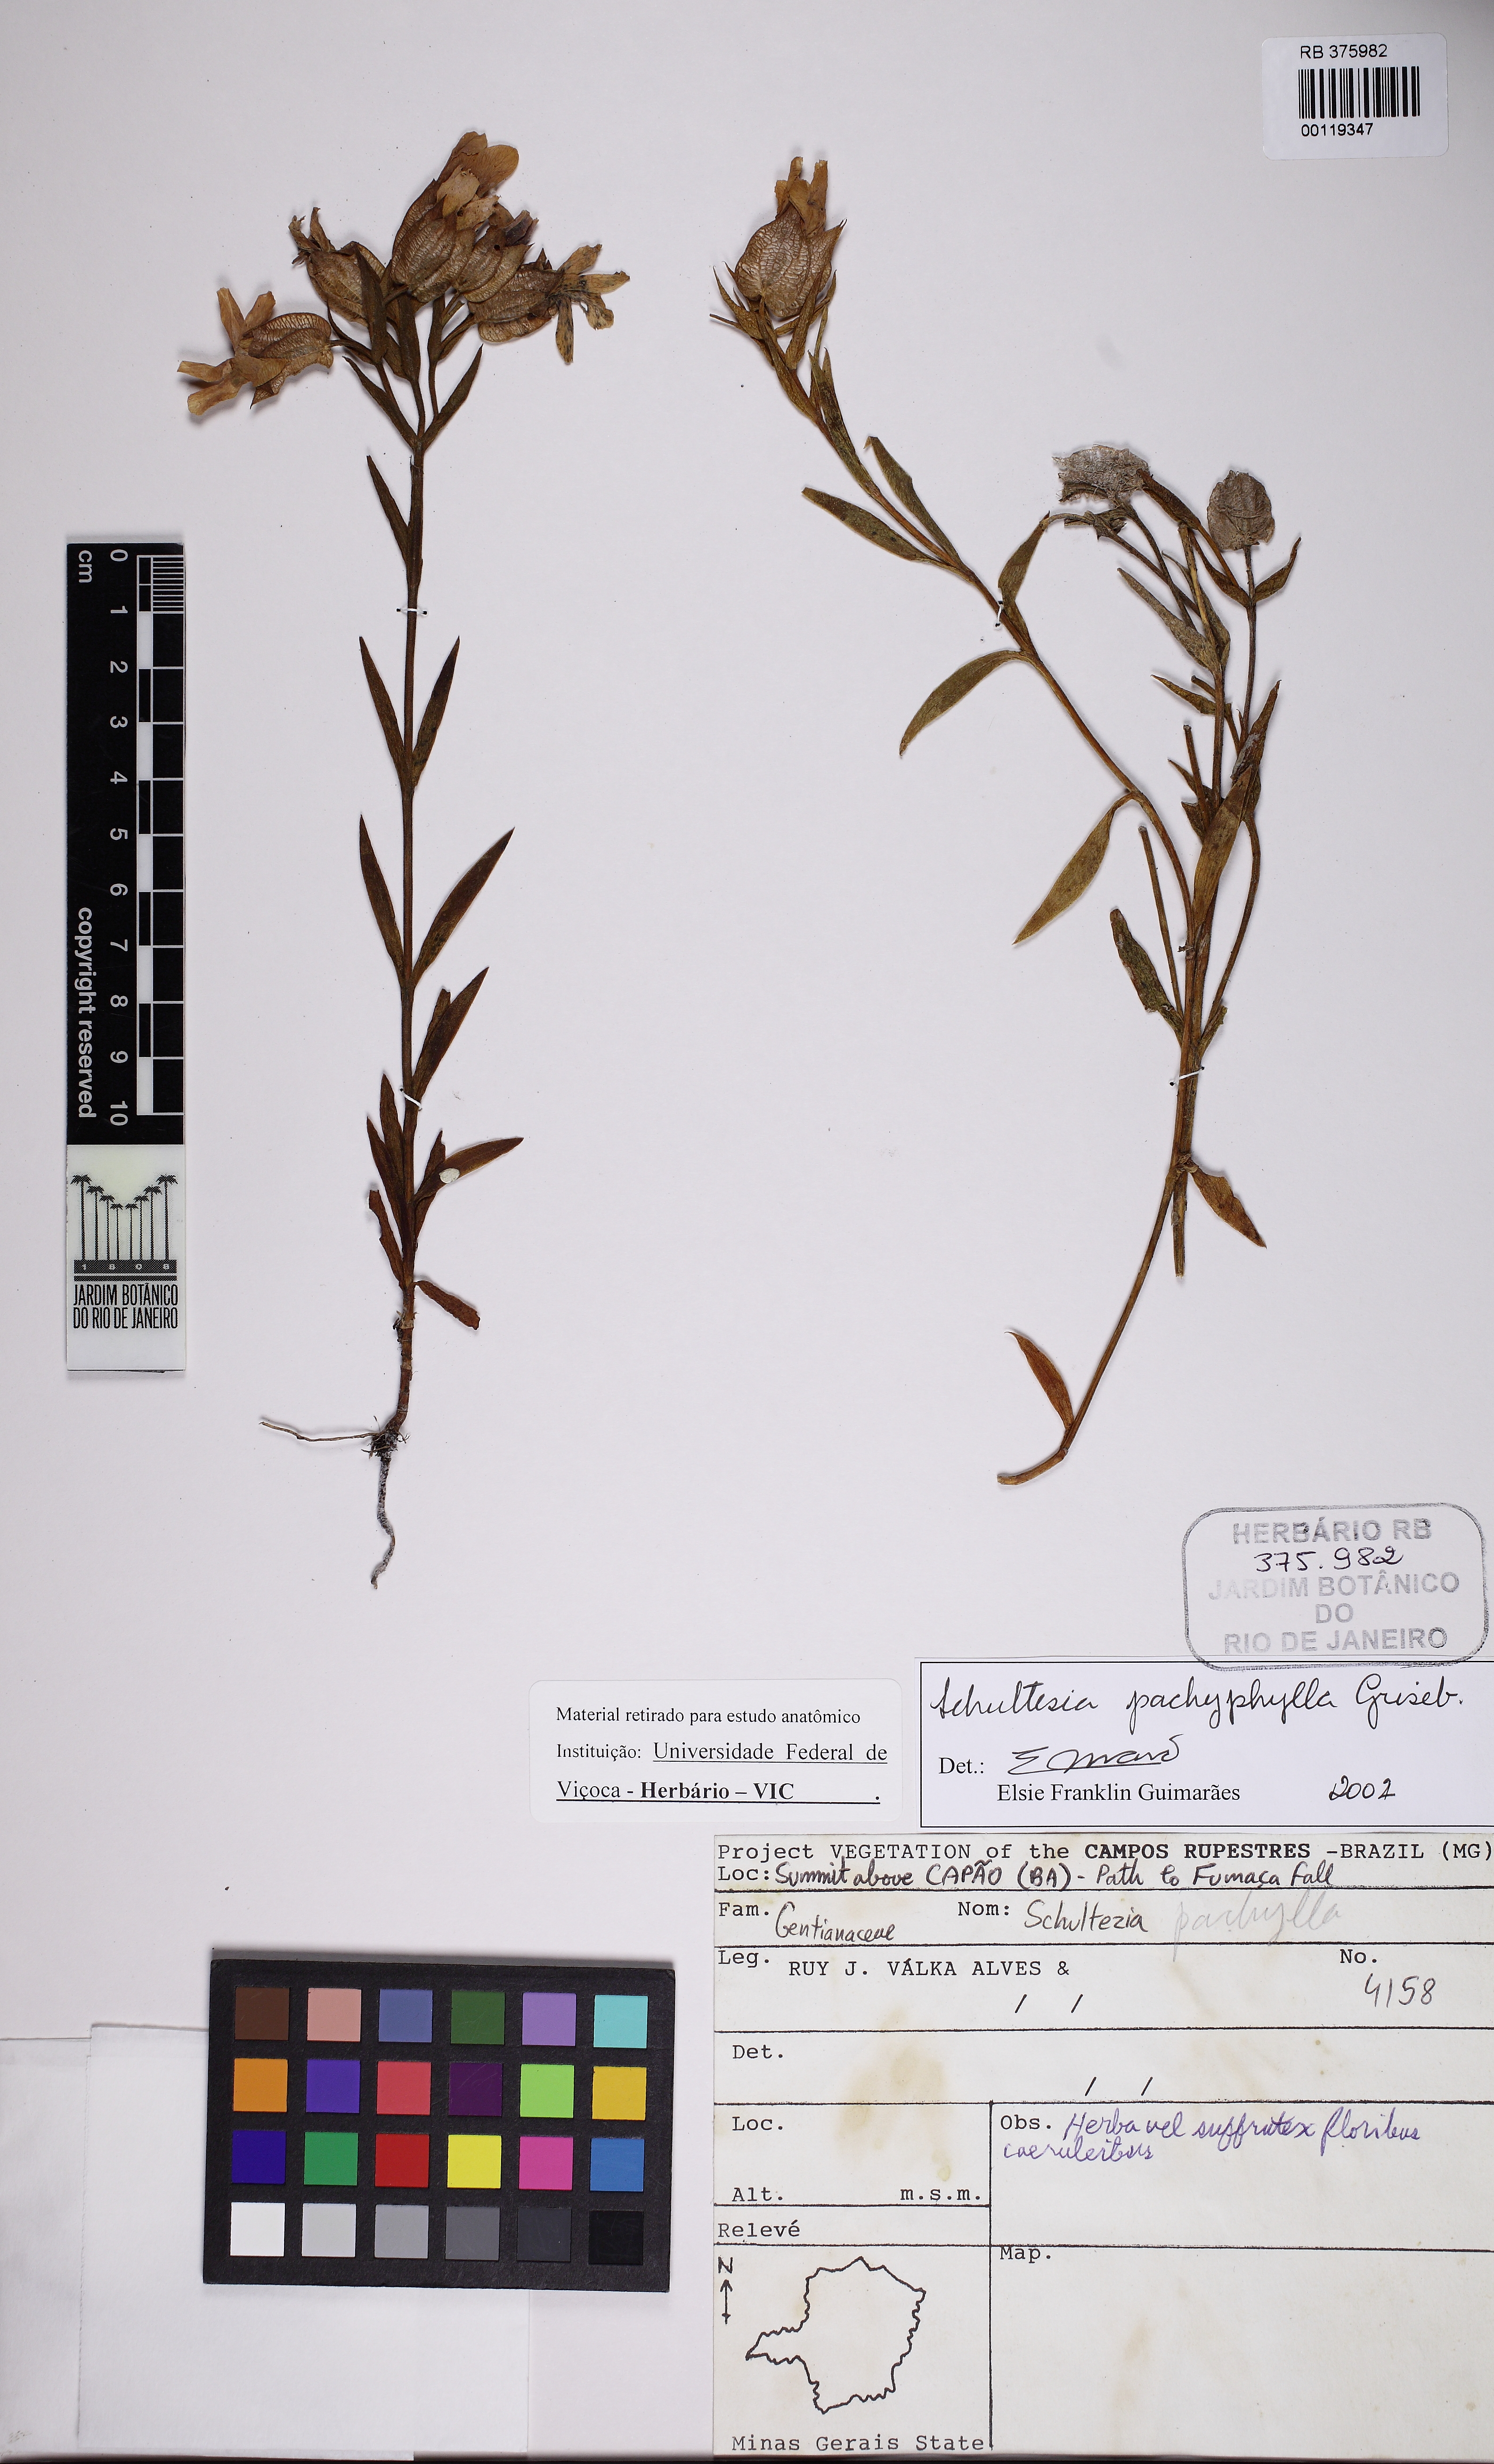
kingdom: Plantae
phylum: Tracheophyta
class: Magnoliopsida
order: Gentianales
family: Gentianaceae
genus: Schultesia
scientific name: Schultesia pachyphylla
